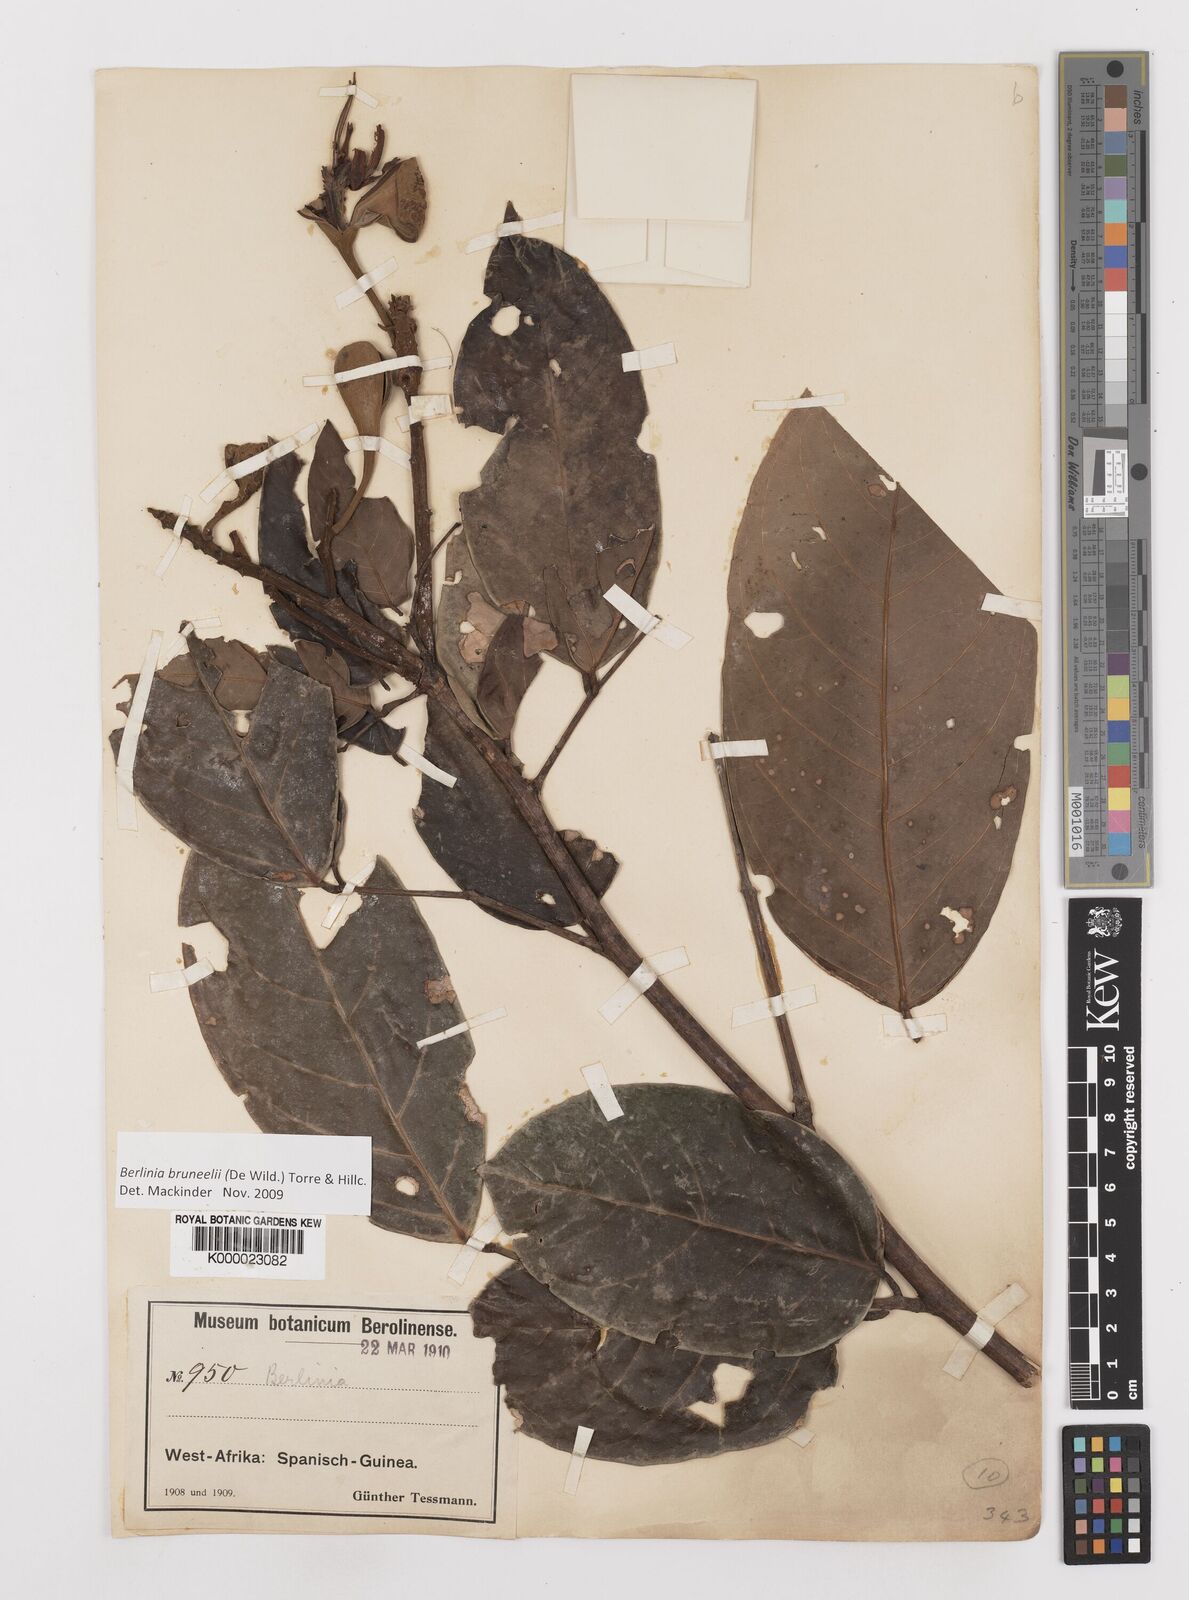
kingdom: Plantae
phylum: Tracheophyta
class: Magnoliopsida
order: Fabales
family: Fabaceae
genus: Berlinia
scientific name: Berlinia bruneelii
